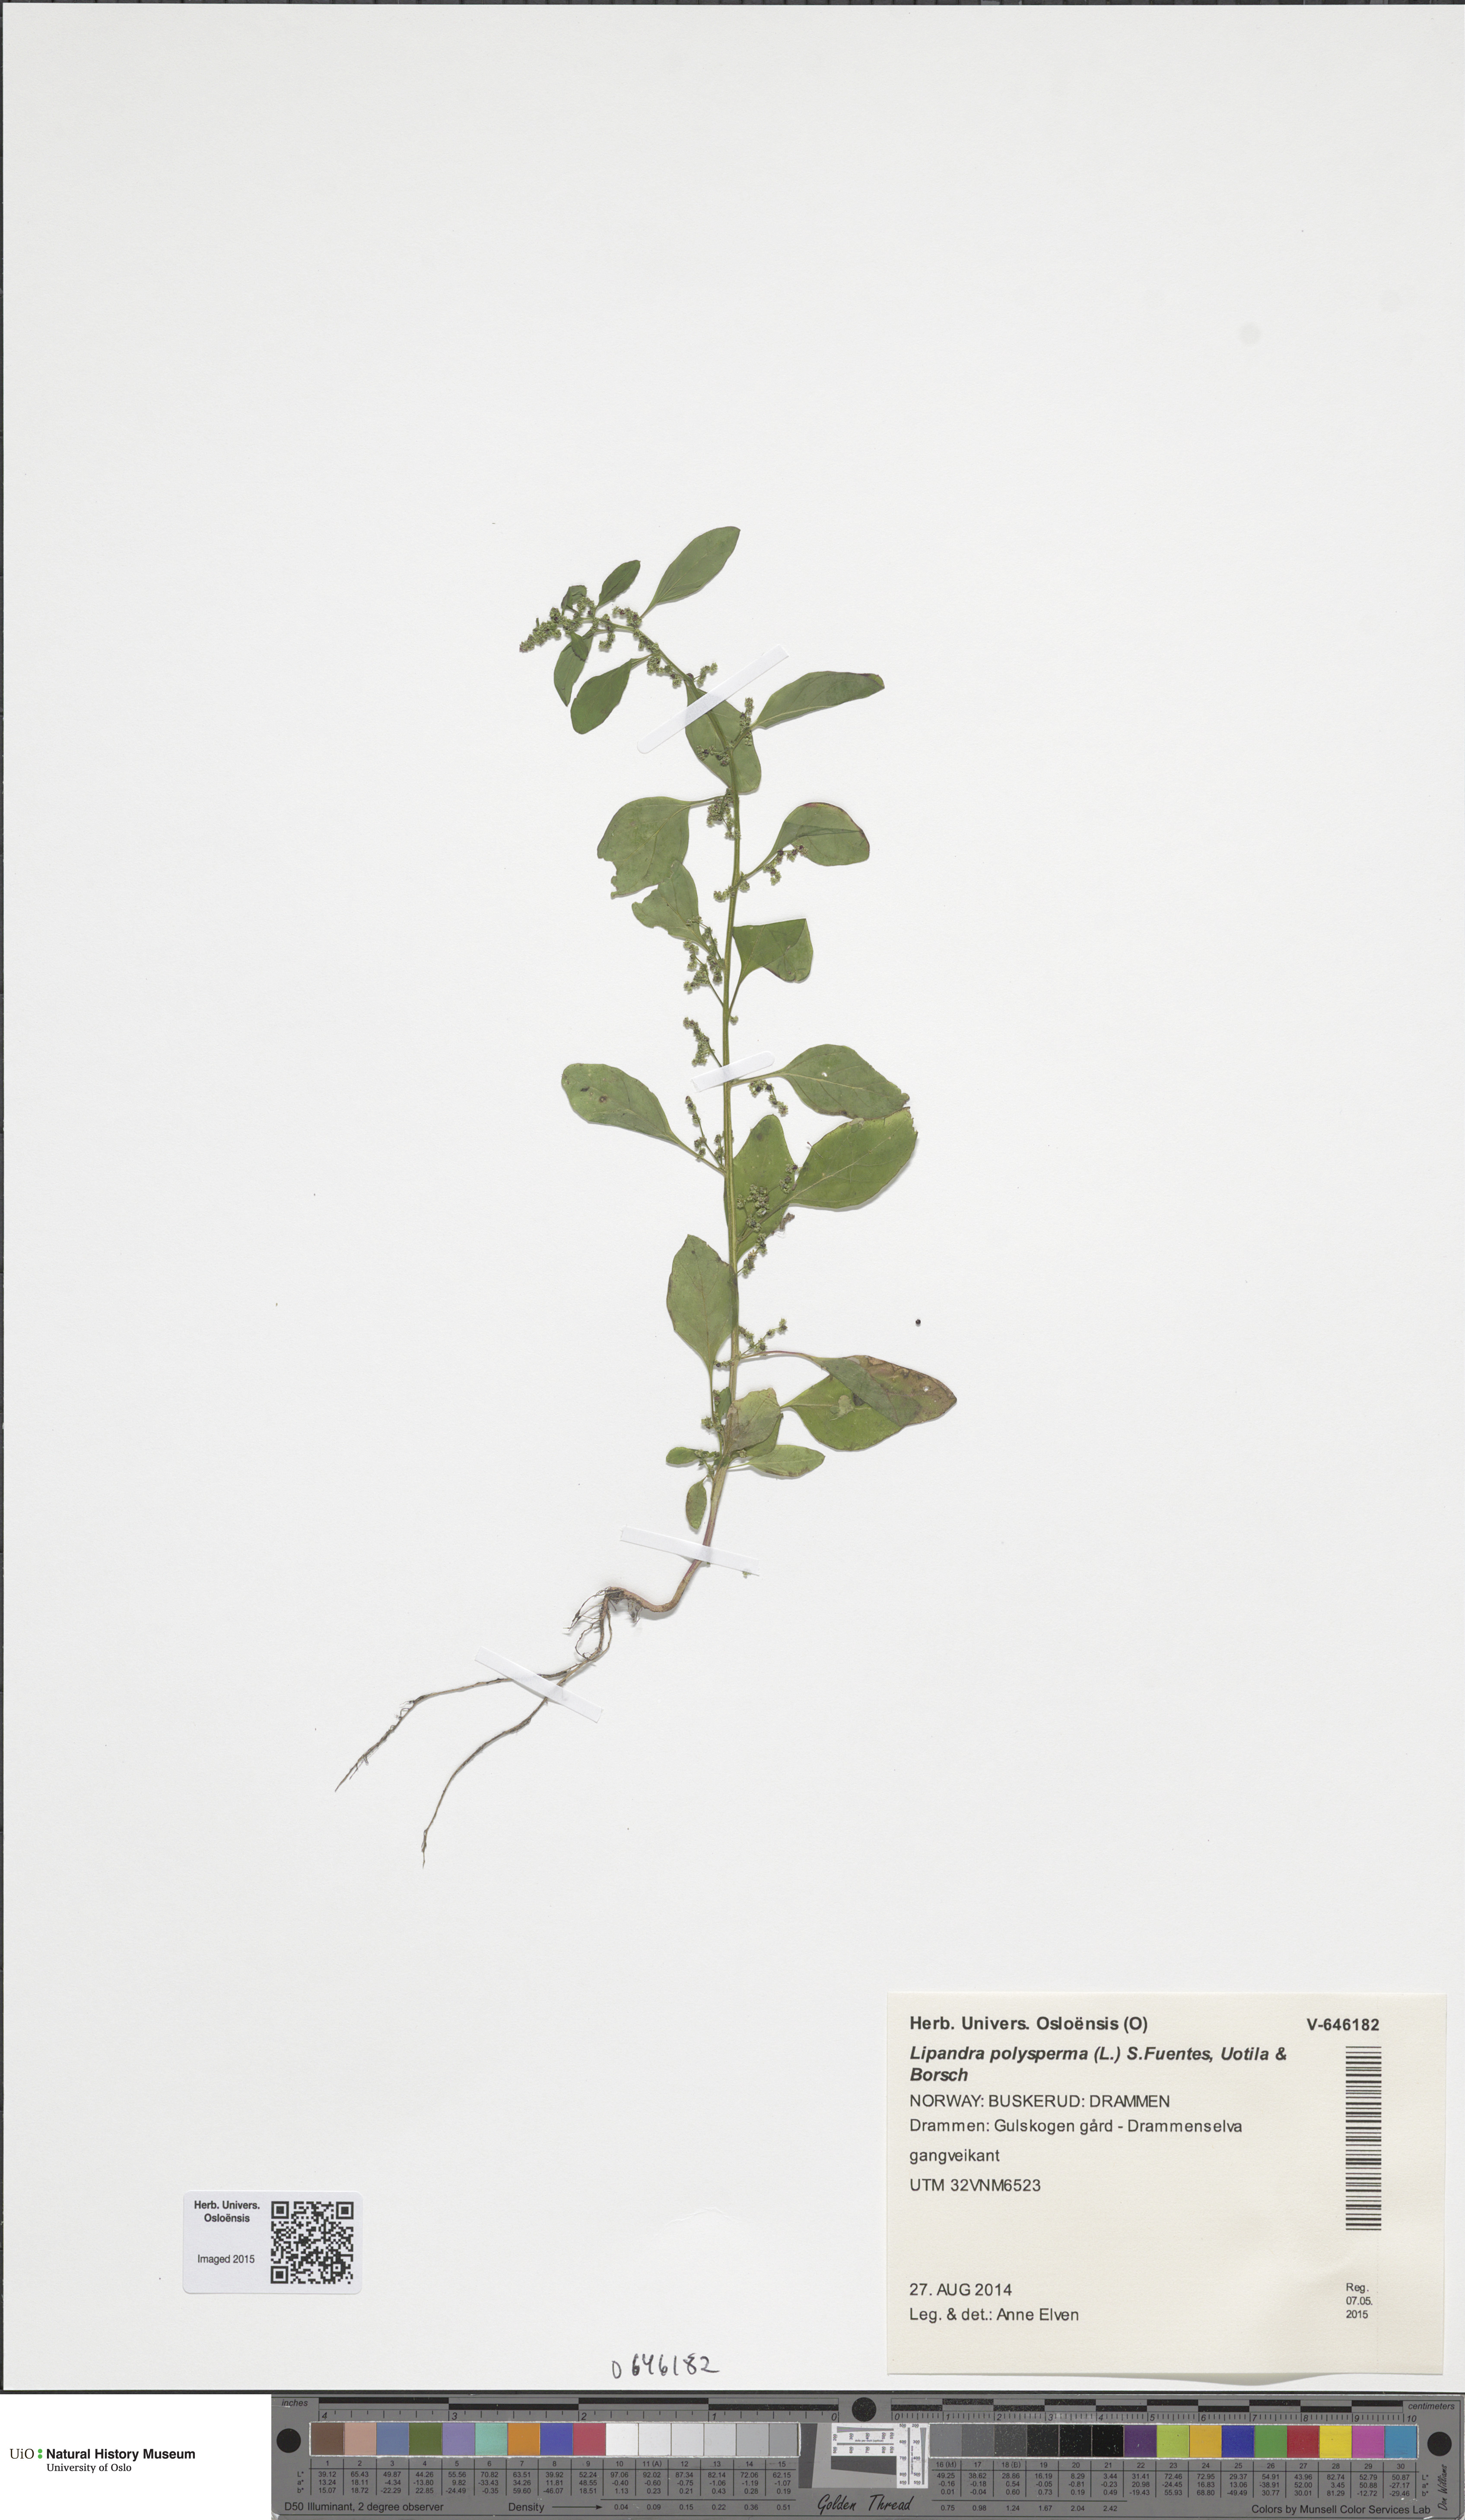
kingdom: Plantae
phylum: Tracheophyta
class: Magnoliopsida
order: Caryophyllales
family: Amaranthaceae
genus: Lipandra
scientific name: Lipandra polysperma
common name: Many-seed goosefoot
